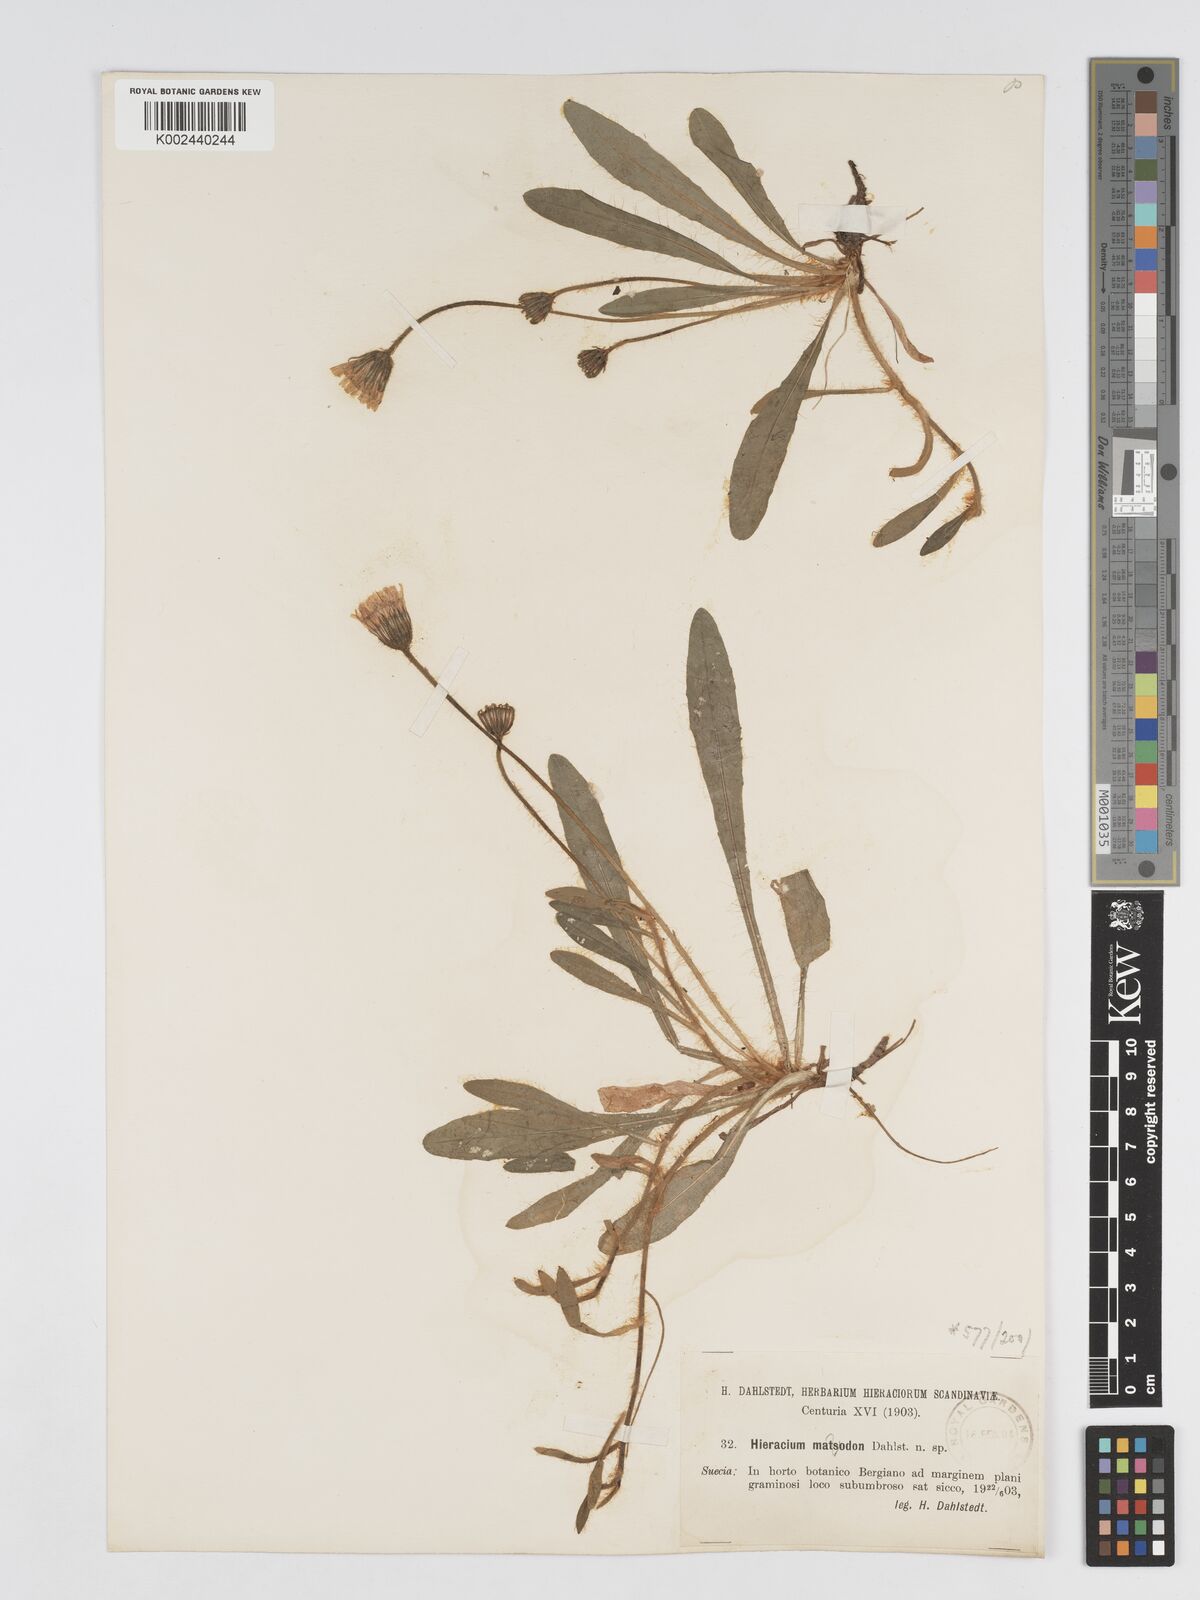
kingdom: Plantae
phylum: Tracheophyta
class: Magnoliopsida
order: Asterales
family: Asteraceae
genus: Pilosella
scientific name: Pilosella officinarum
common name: Mouse-ear hawkweed
